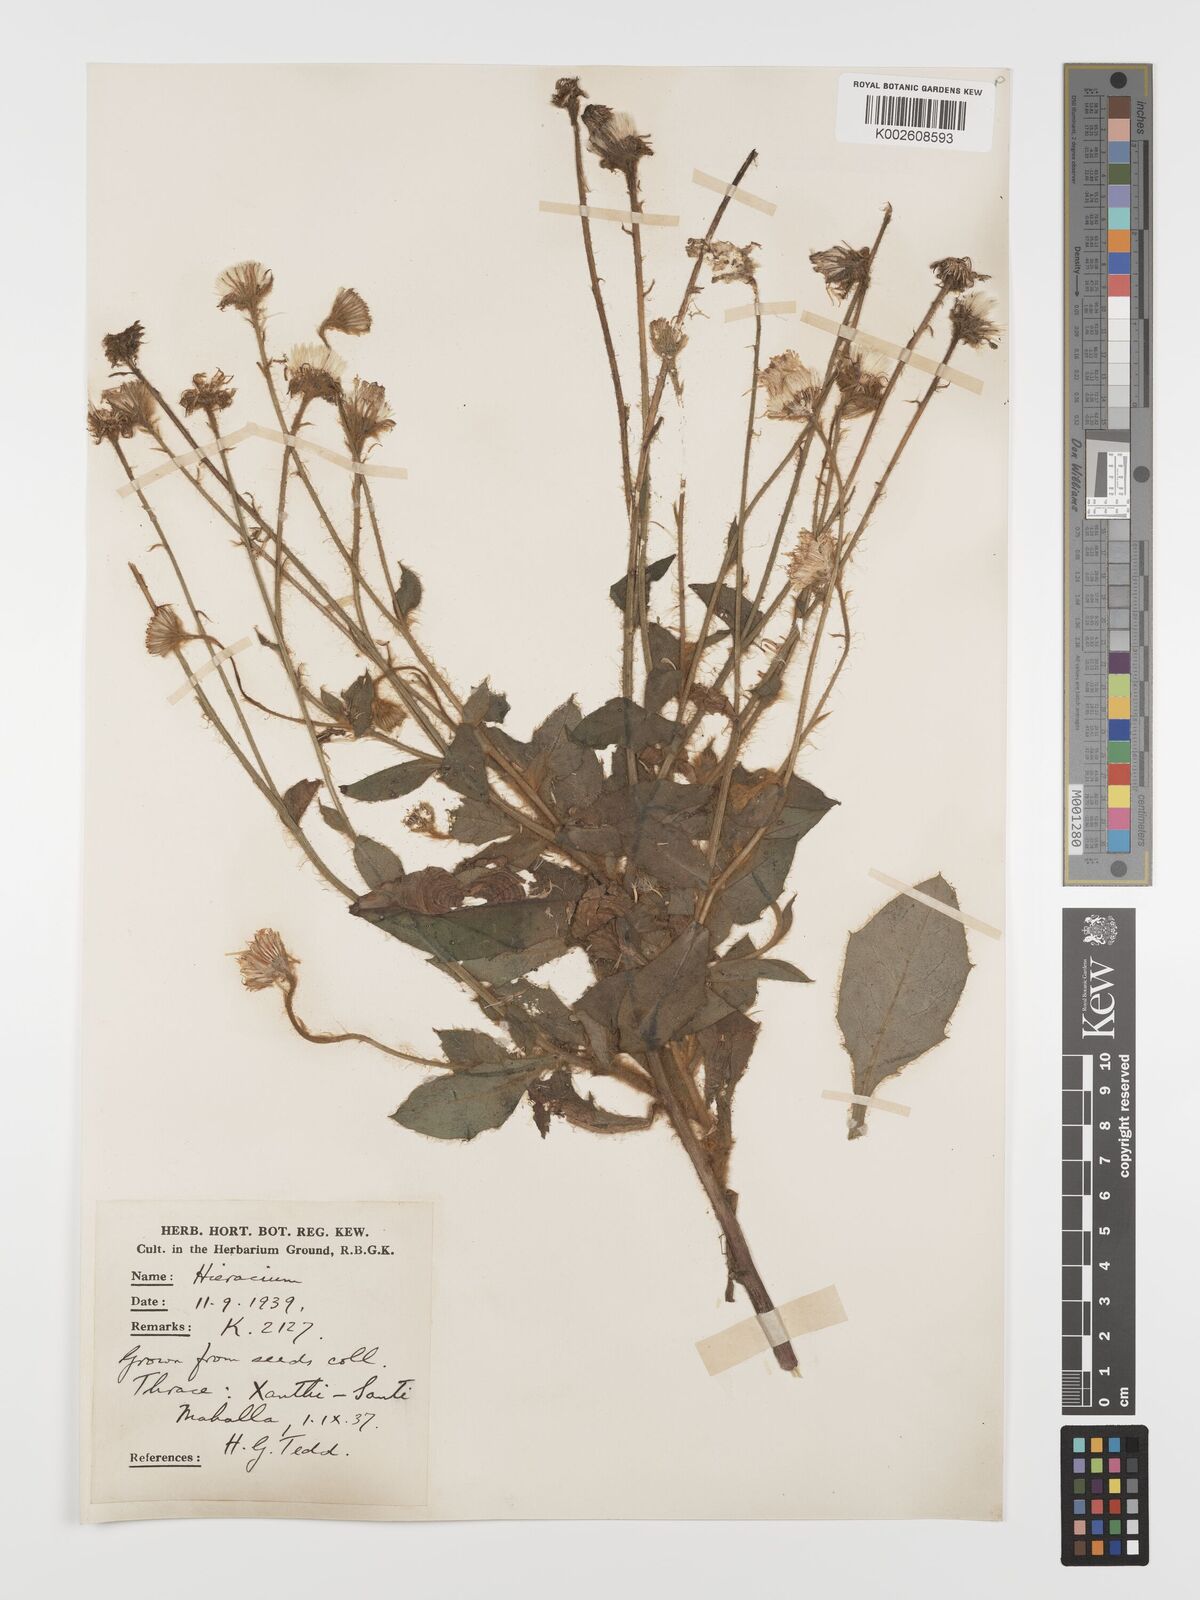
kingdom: Plantae
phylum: Tracheophyta
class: Magnoliopsida
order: Asterales
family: Asteraceae
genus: Hieracium
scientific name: Hieracium pannosum
